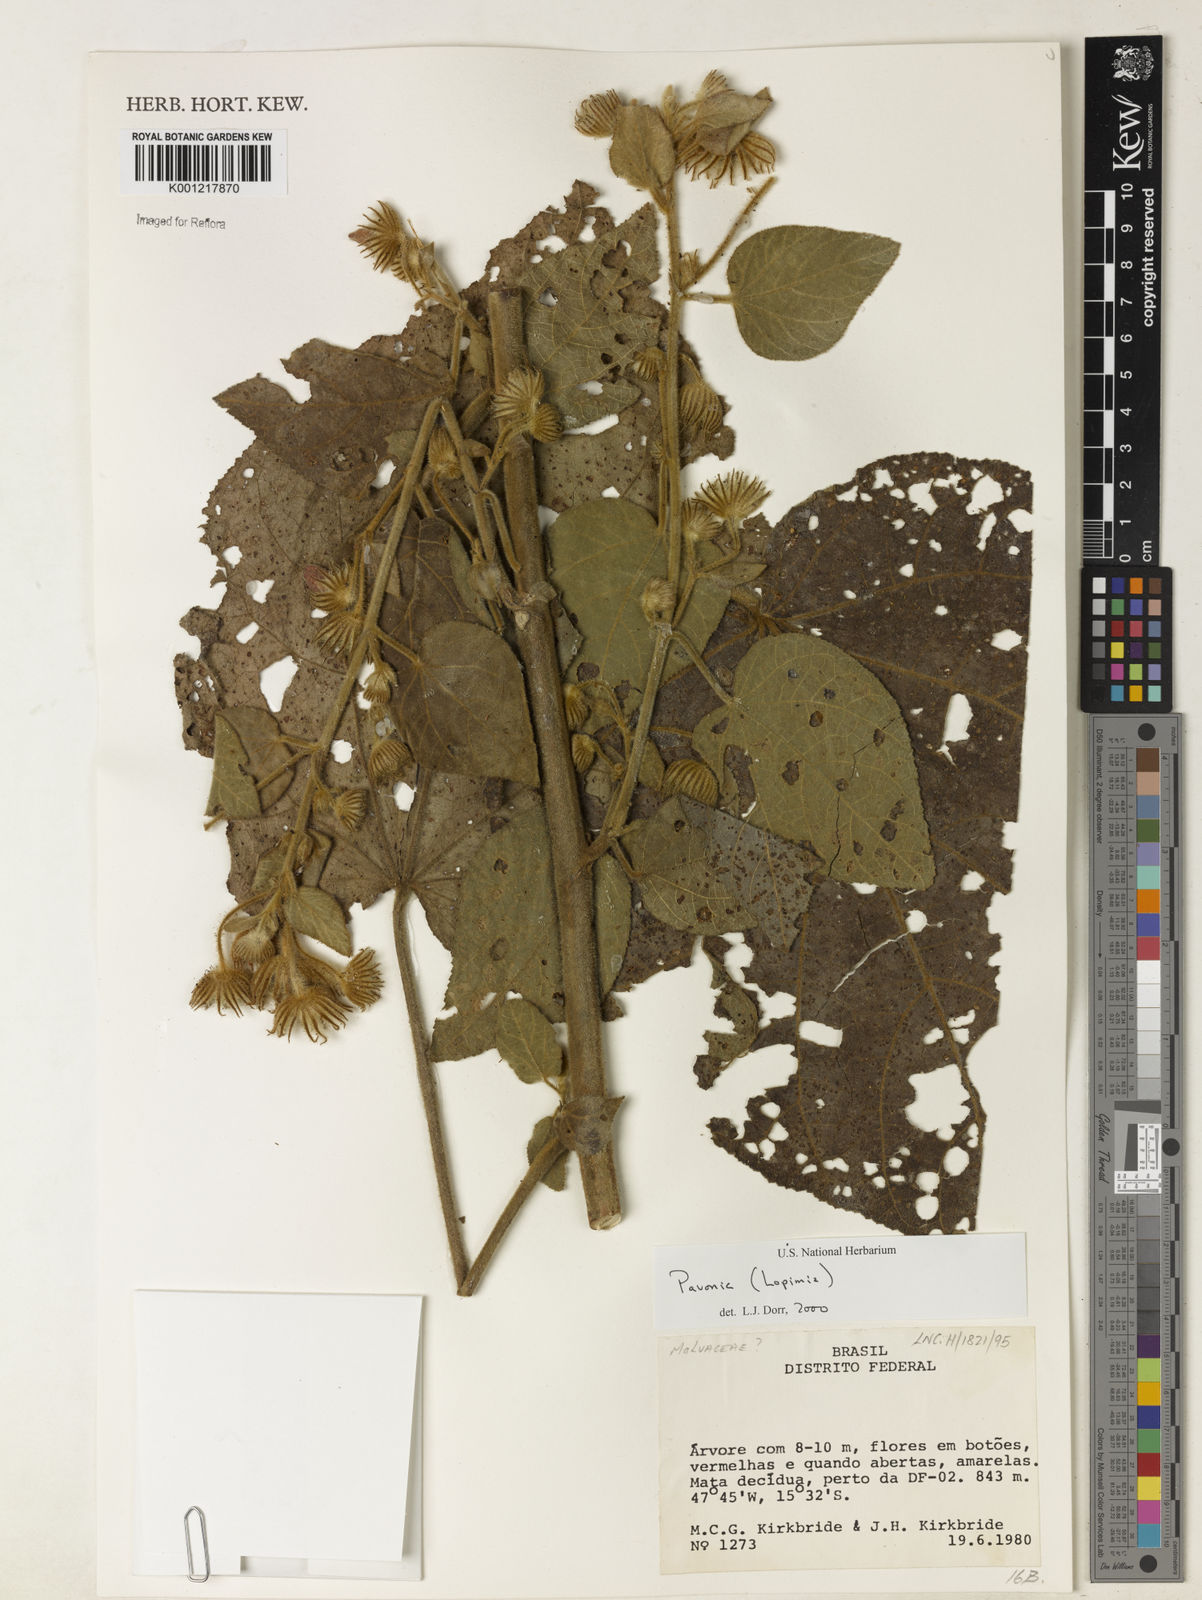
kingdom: Plantae
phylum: Tracheophyta
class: Magnoliopsida
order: Malvales
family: Malvaceae
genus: Pavonia
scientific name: Pavonia
